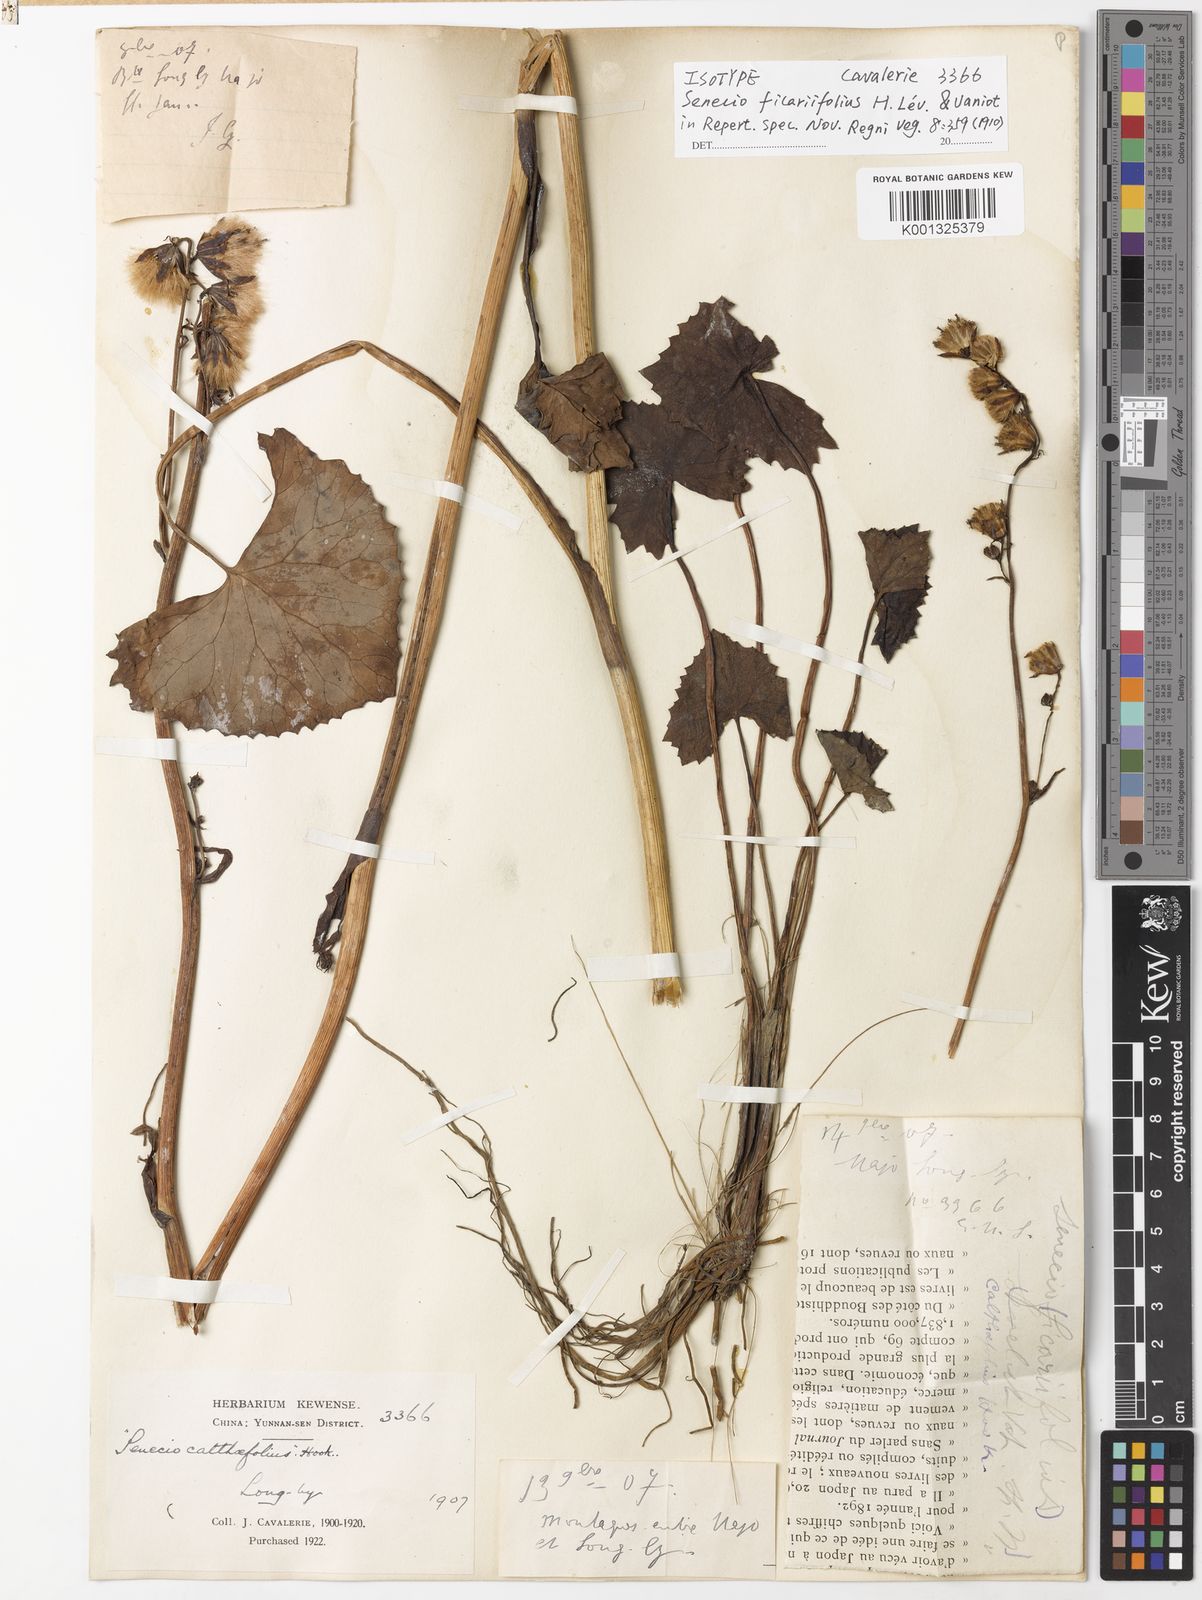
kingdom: Plantae
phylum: Tracheophyta
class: Magnoliopsida
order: Asterales
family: Asteraceae
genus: Ligularia
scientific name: Ligularia hookeri
